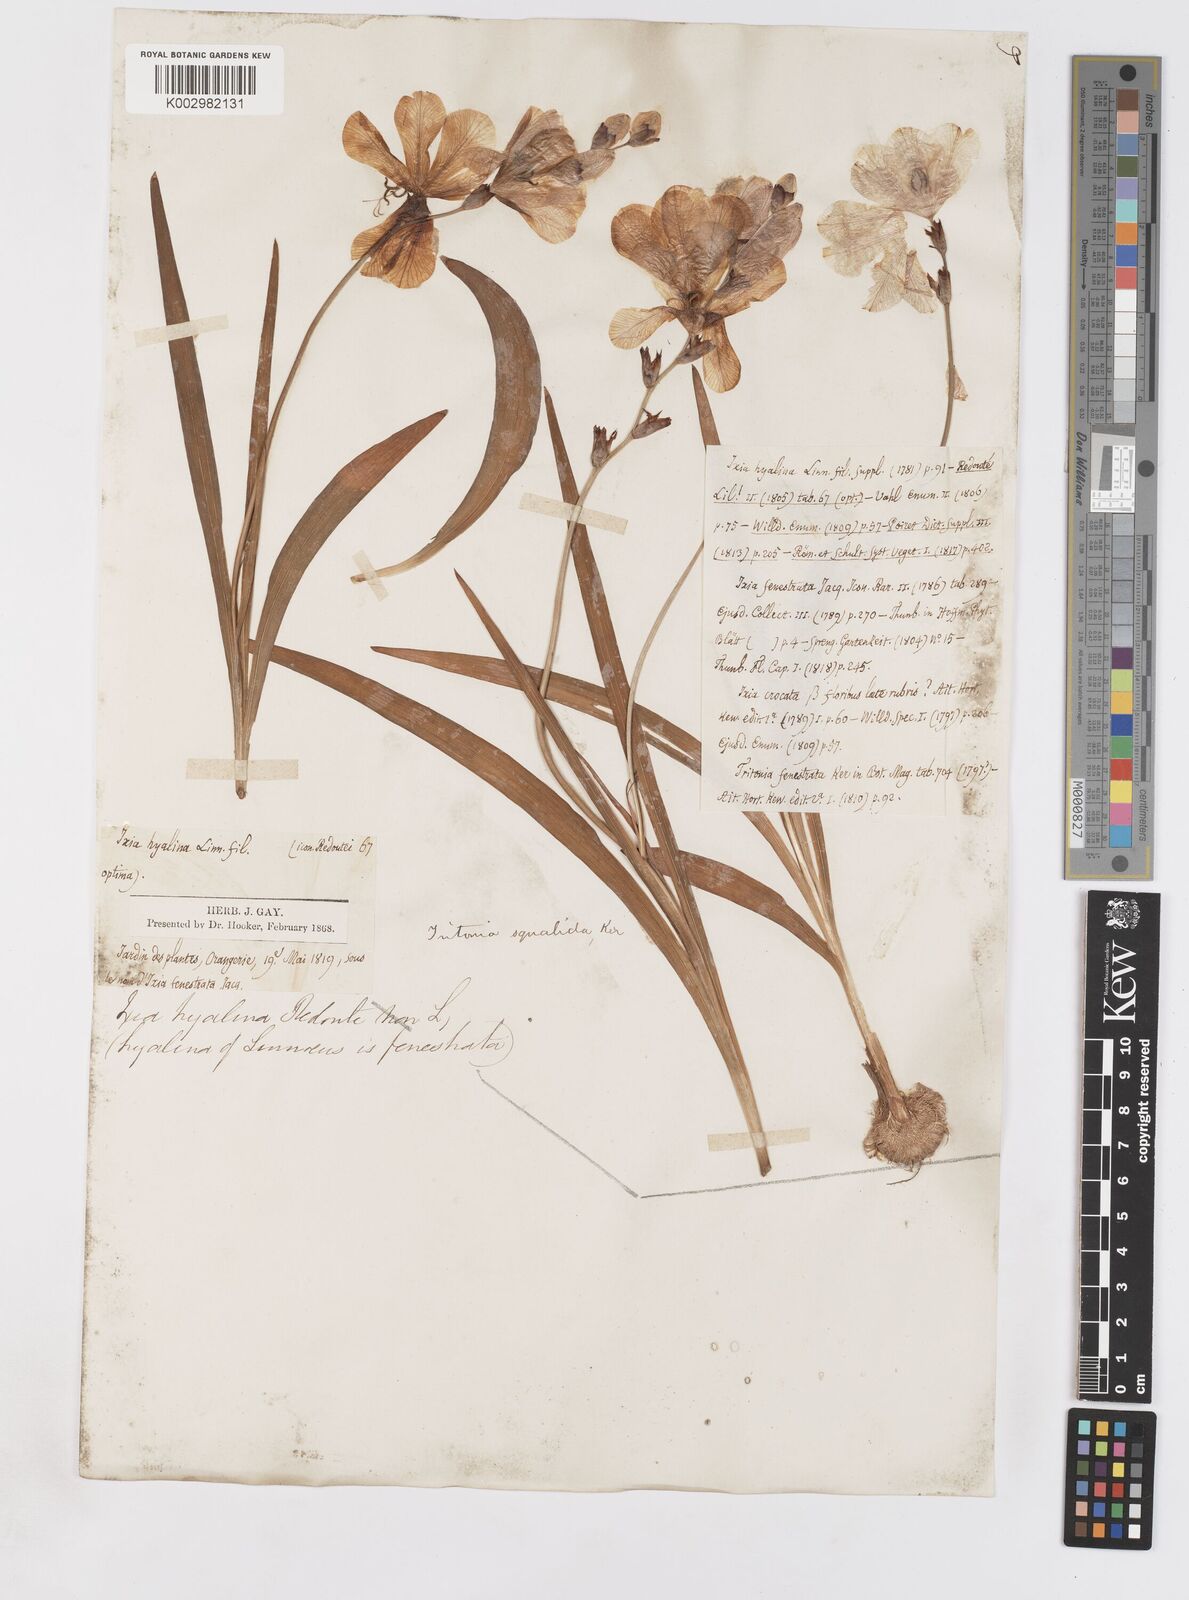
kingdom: Plantae
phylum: Tracheophyta
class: Liliopsida
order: Asparagales
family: Iridaceae
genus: Tritonia
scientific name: Tritonia squalida
